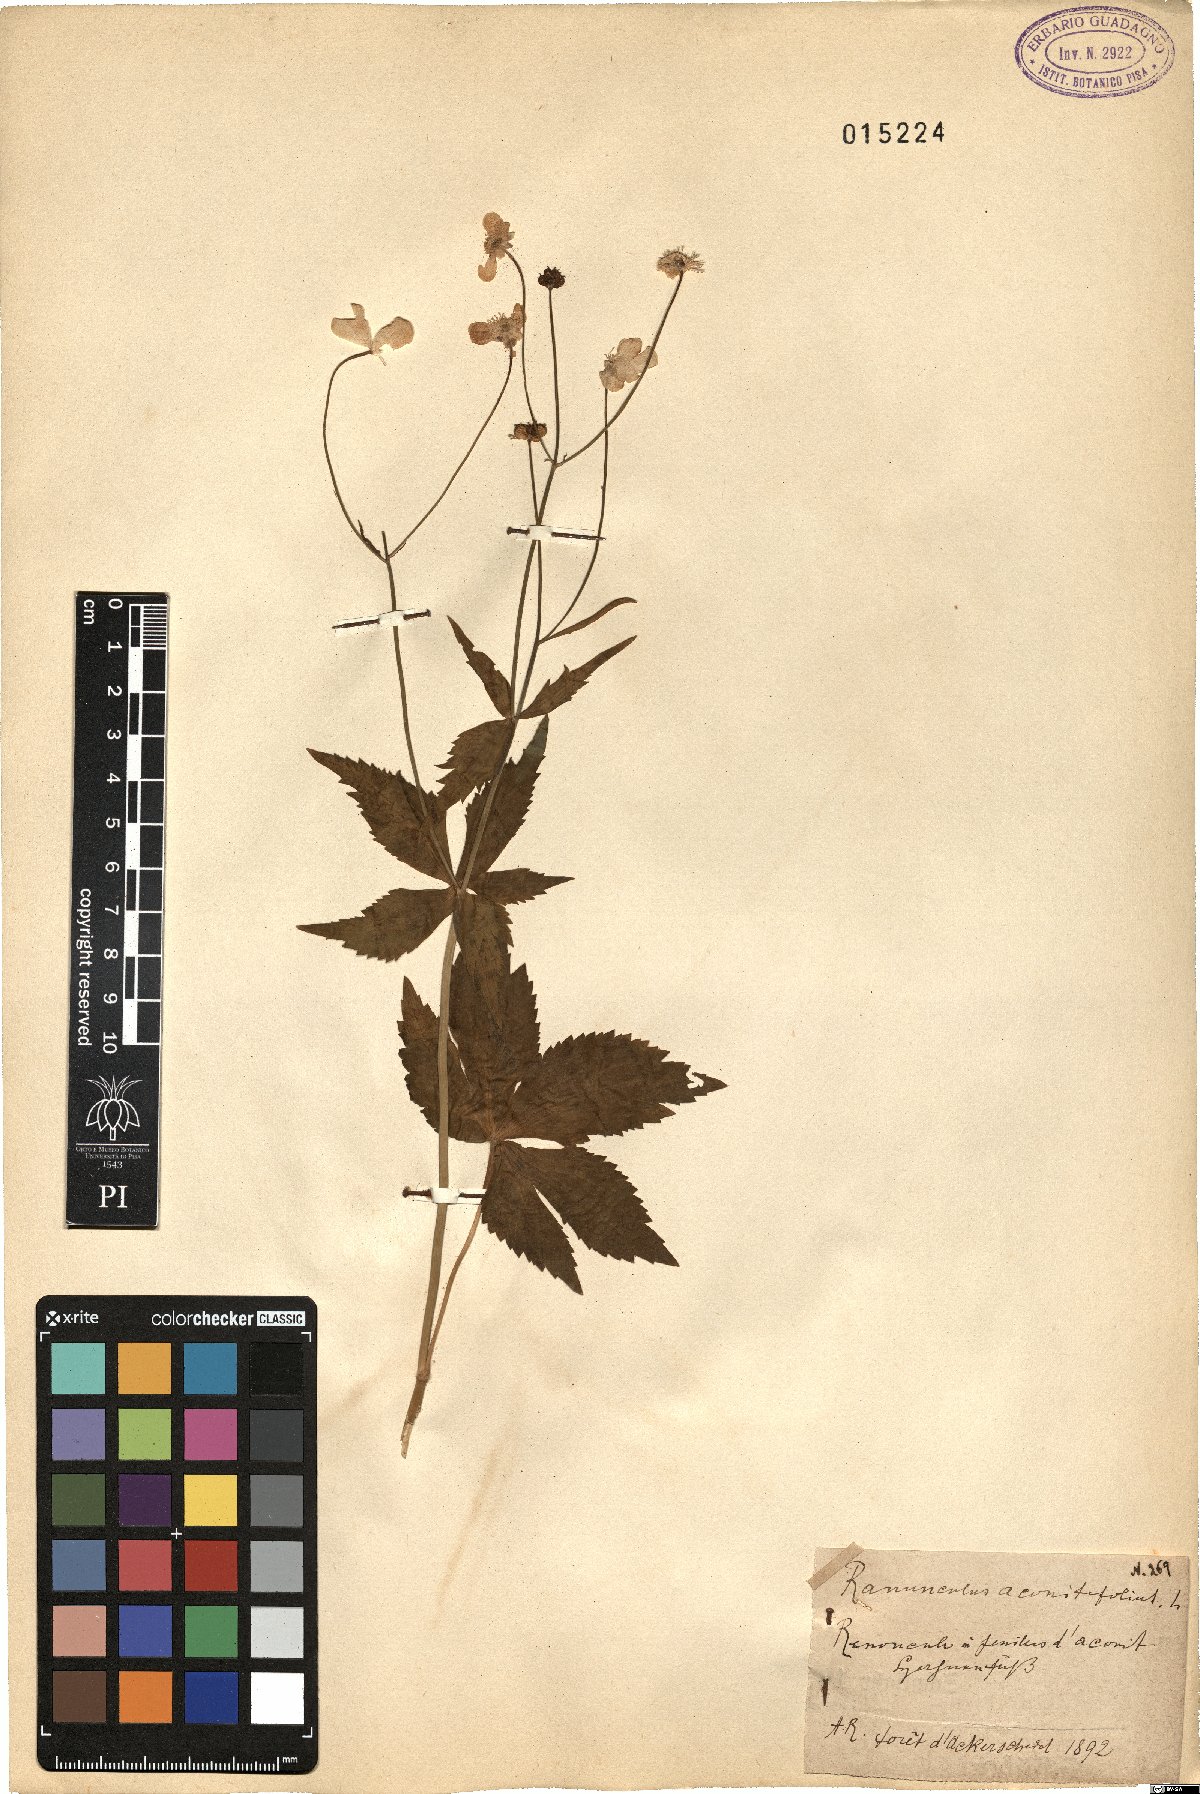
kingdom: Plantae
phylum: Tracheophyta
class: Magnoliopsida
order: Ranunculales
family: Ranunculaceae
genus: Ranunculus
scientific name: Ranunculus aconitifolius
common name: Aconite-leaved buttercup
